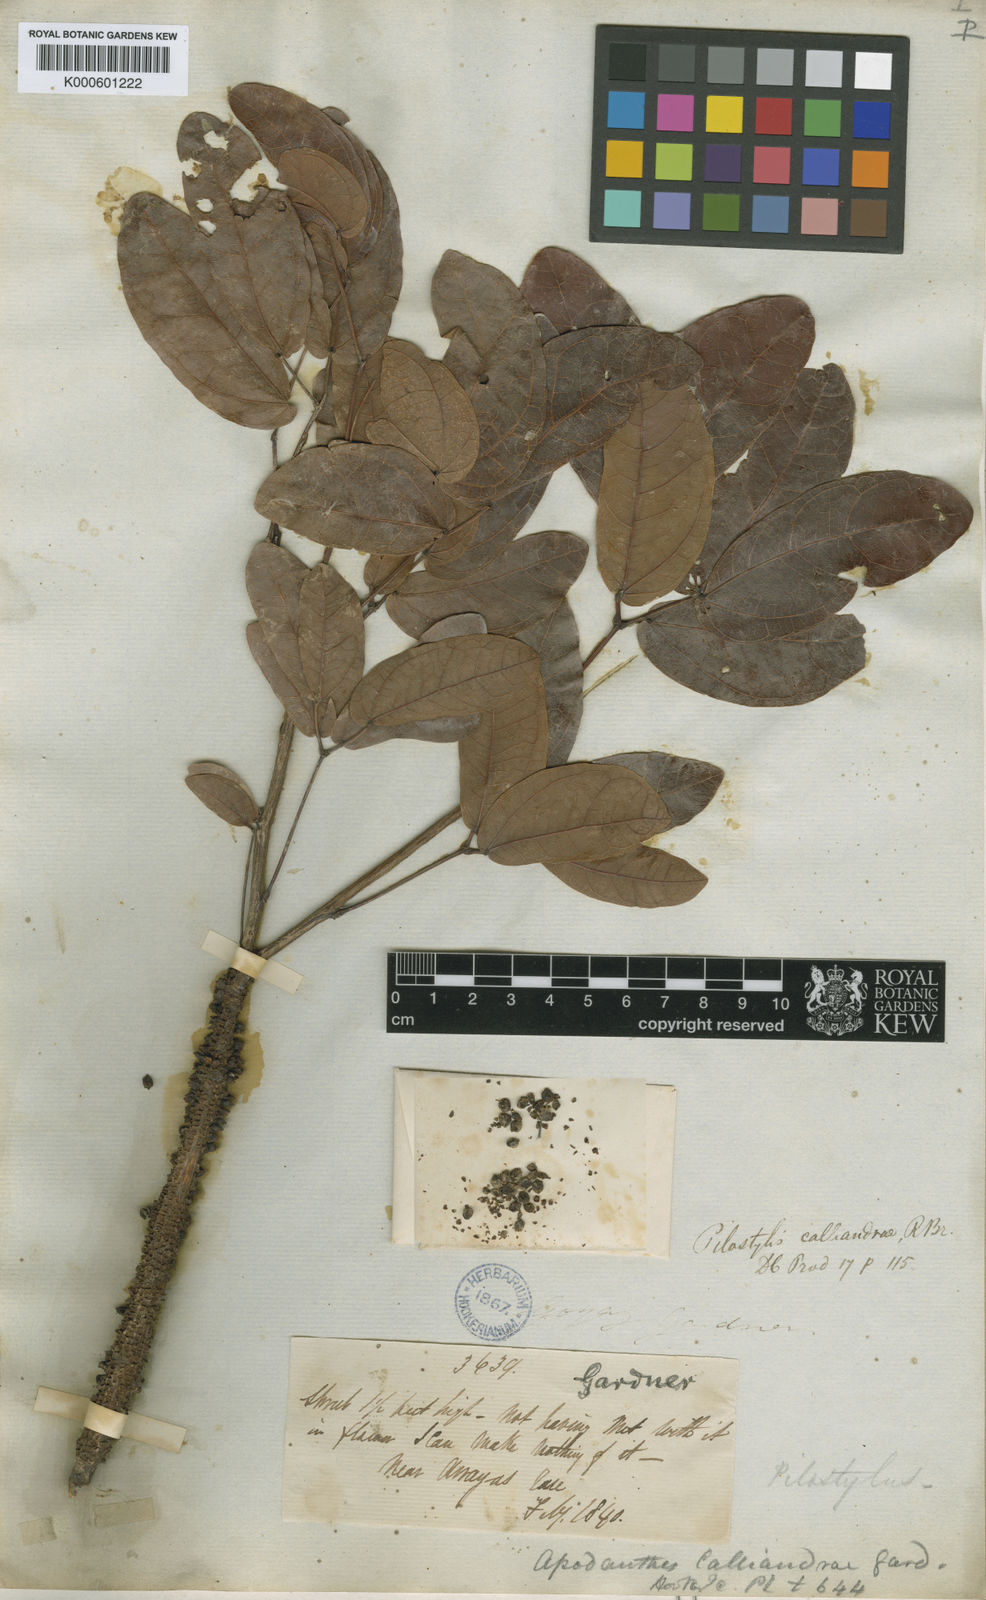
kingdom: Plantae
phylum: Tracheophyta
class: Magnoliopsida
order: Cucurbitales
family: Apodanthaceae
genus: Pilostyles
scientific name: Pilostyles blanchetii
